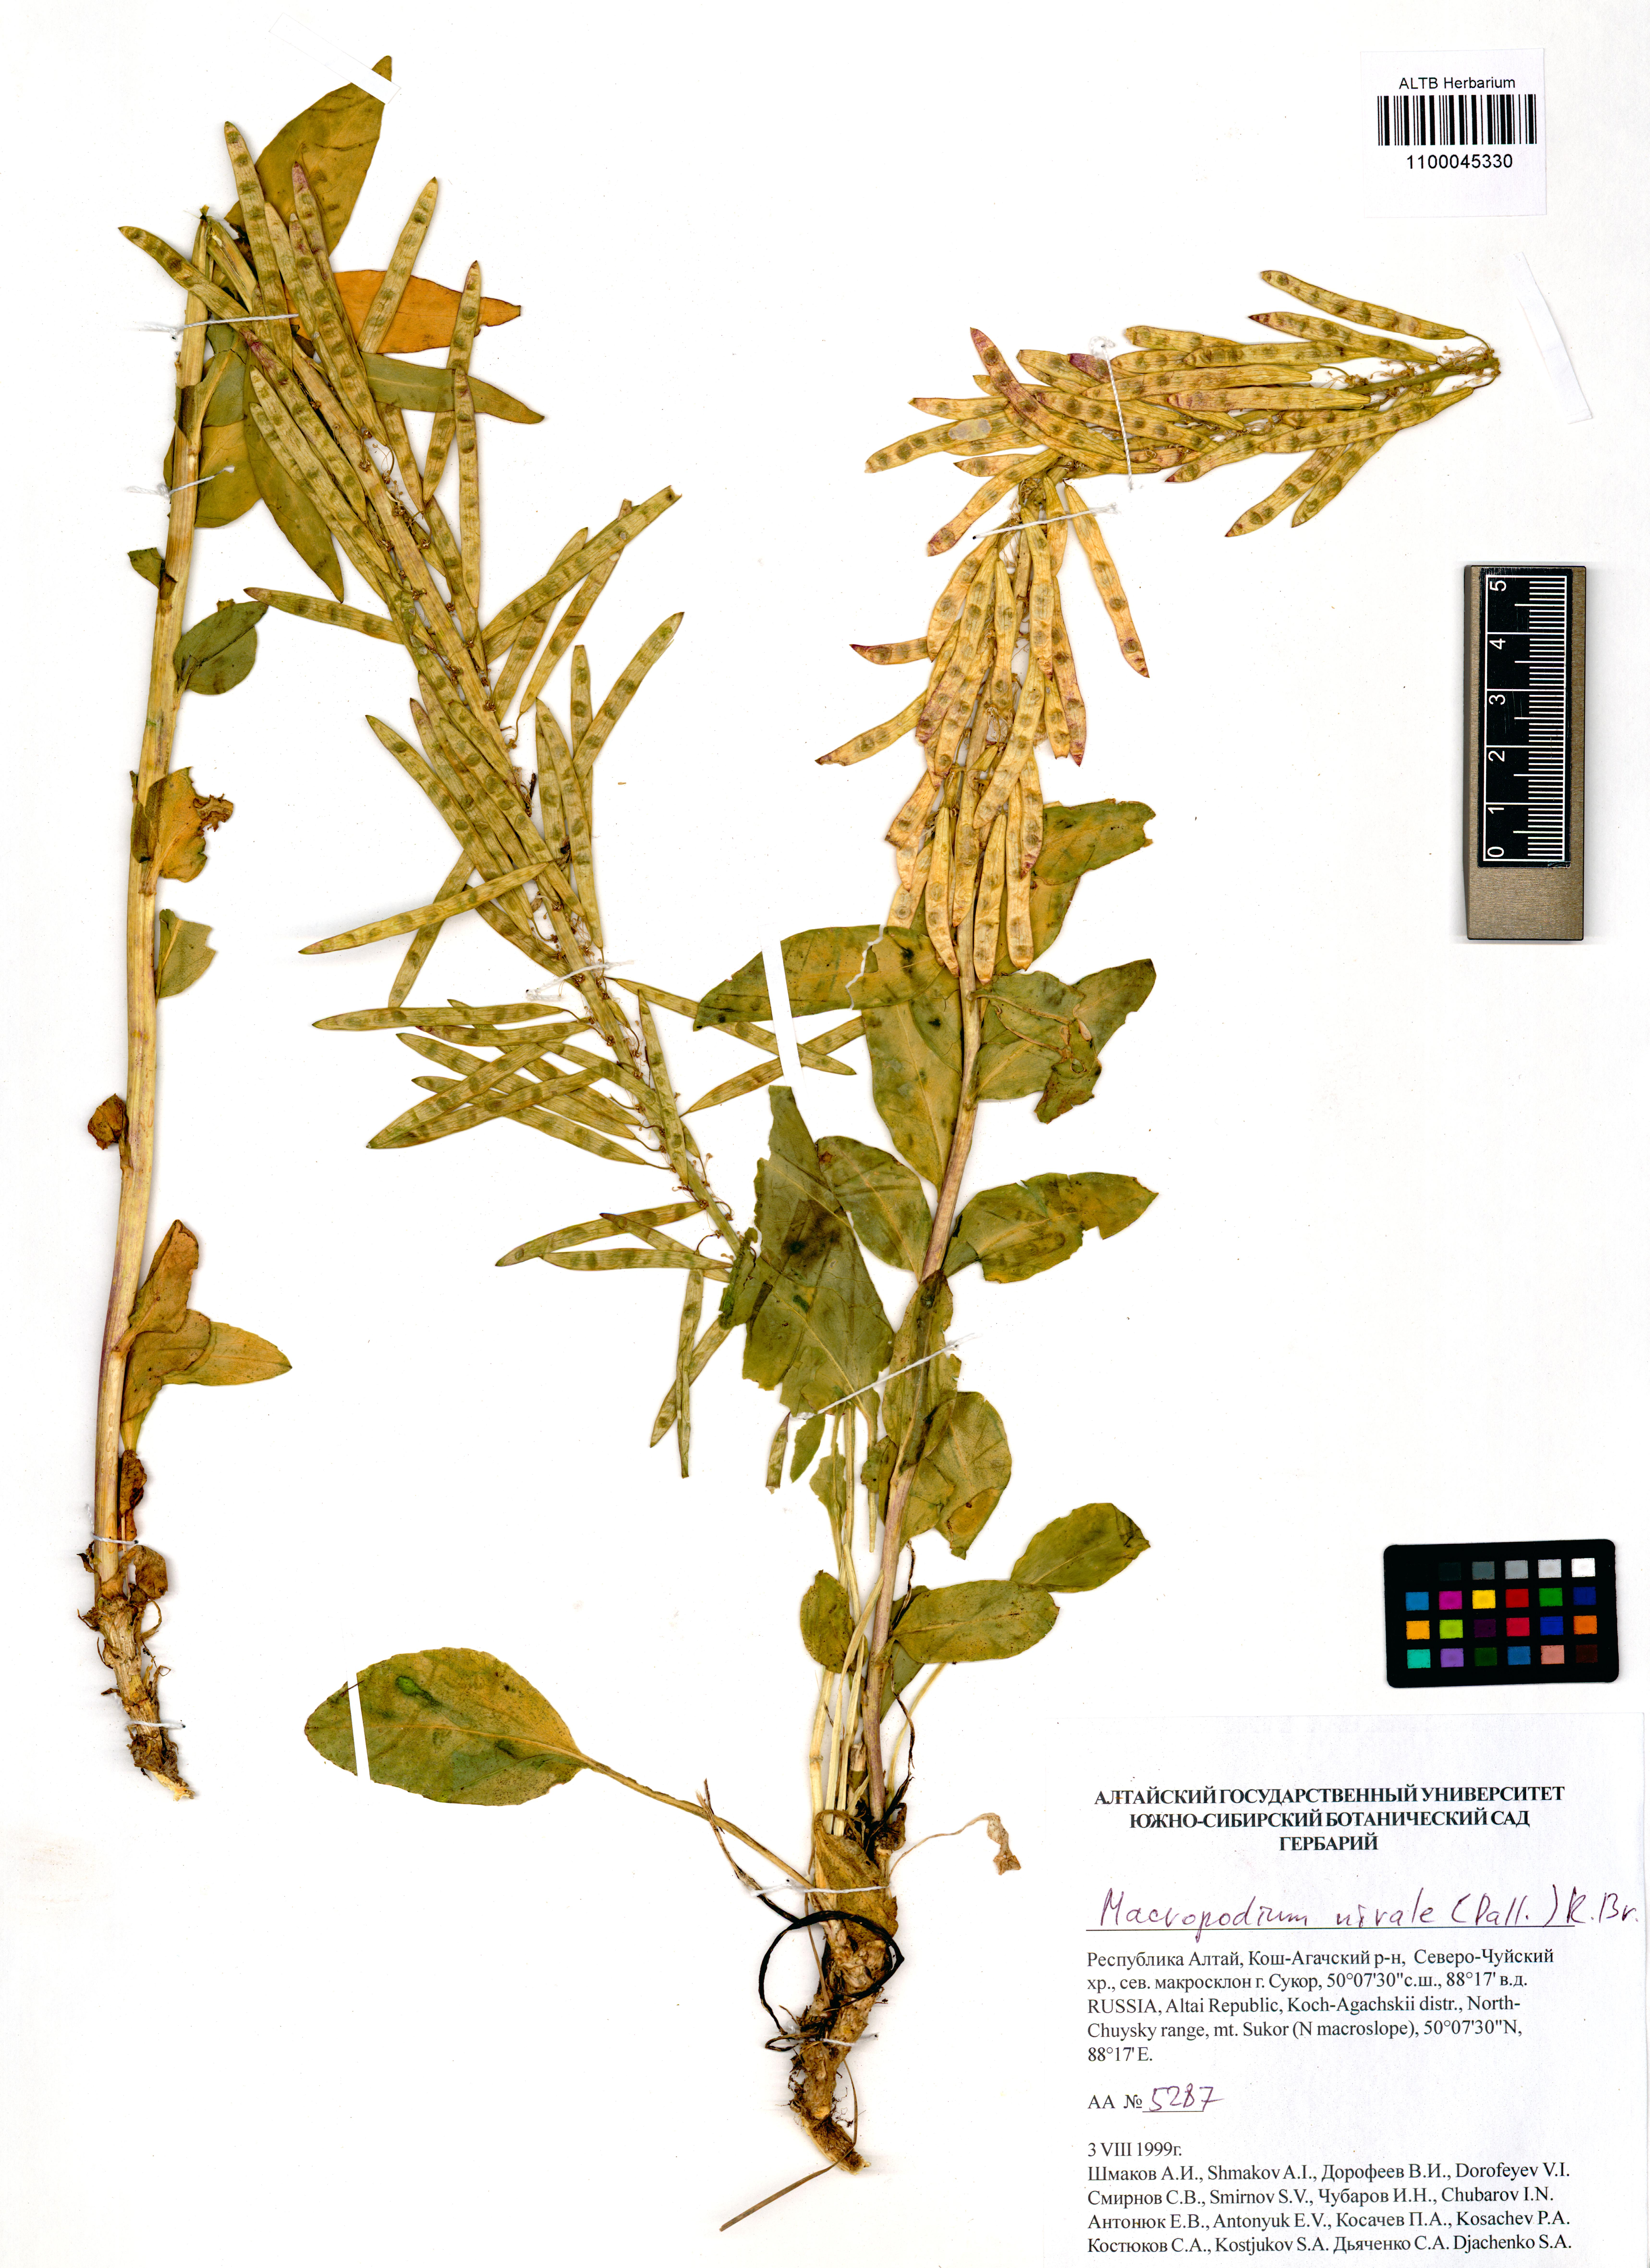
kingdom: Plantae
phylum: Tracheophyta
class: Magnoliopsida
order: Brassicales
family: Brassicaceae
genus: Macropodium
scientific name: Macropodium nivale
